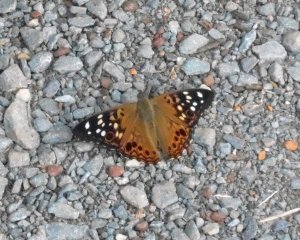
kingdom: Animalia
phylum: Arthropoda
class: Insecta
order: Lepidoptera
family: Nymphalidae
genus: Asterocampa
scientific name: Asterocampa celtis
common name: Hackberry Emperor
